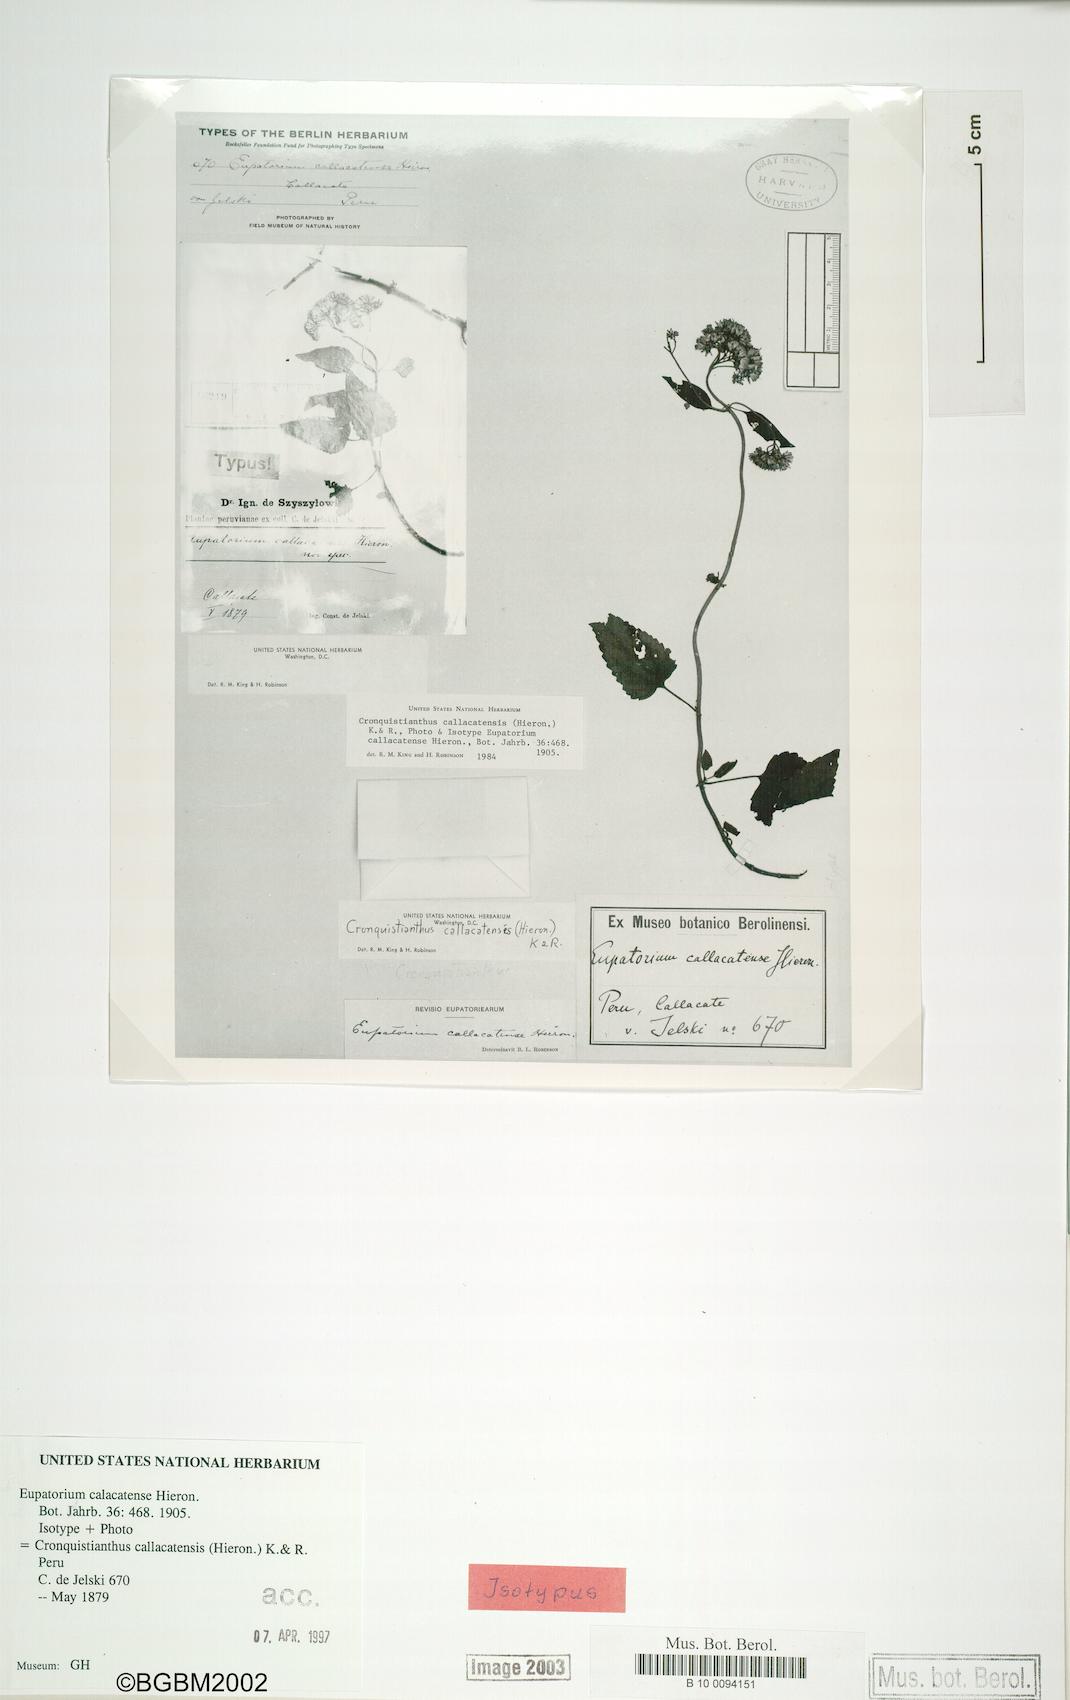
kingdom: Plantae
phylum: Tracheophyta
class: Magnoliopsida
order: Asterales
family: Asteraceae
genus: Cronquistianthus
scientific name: Cronquistianthus callacatensis
